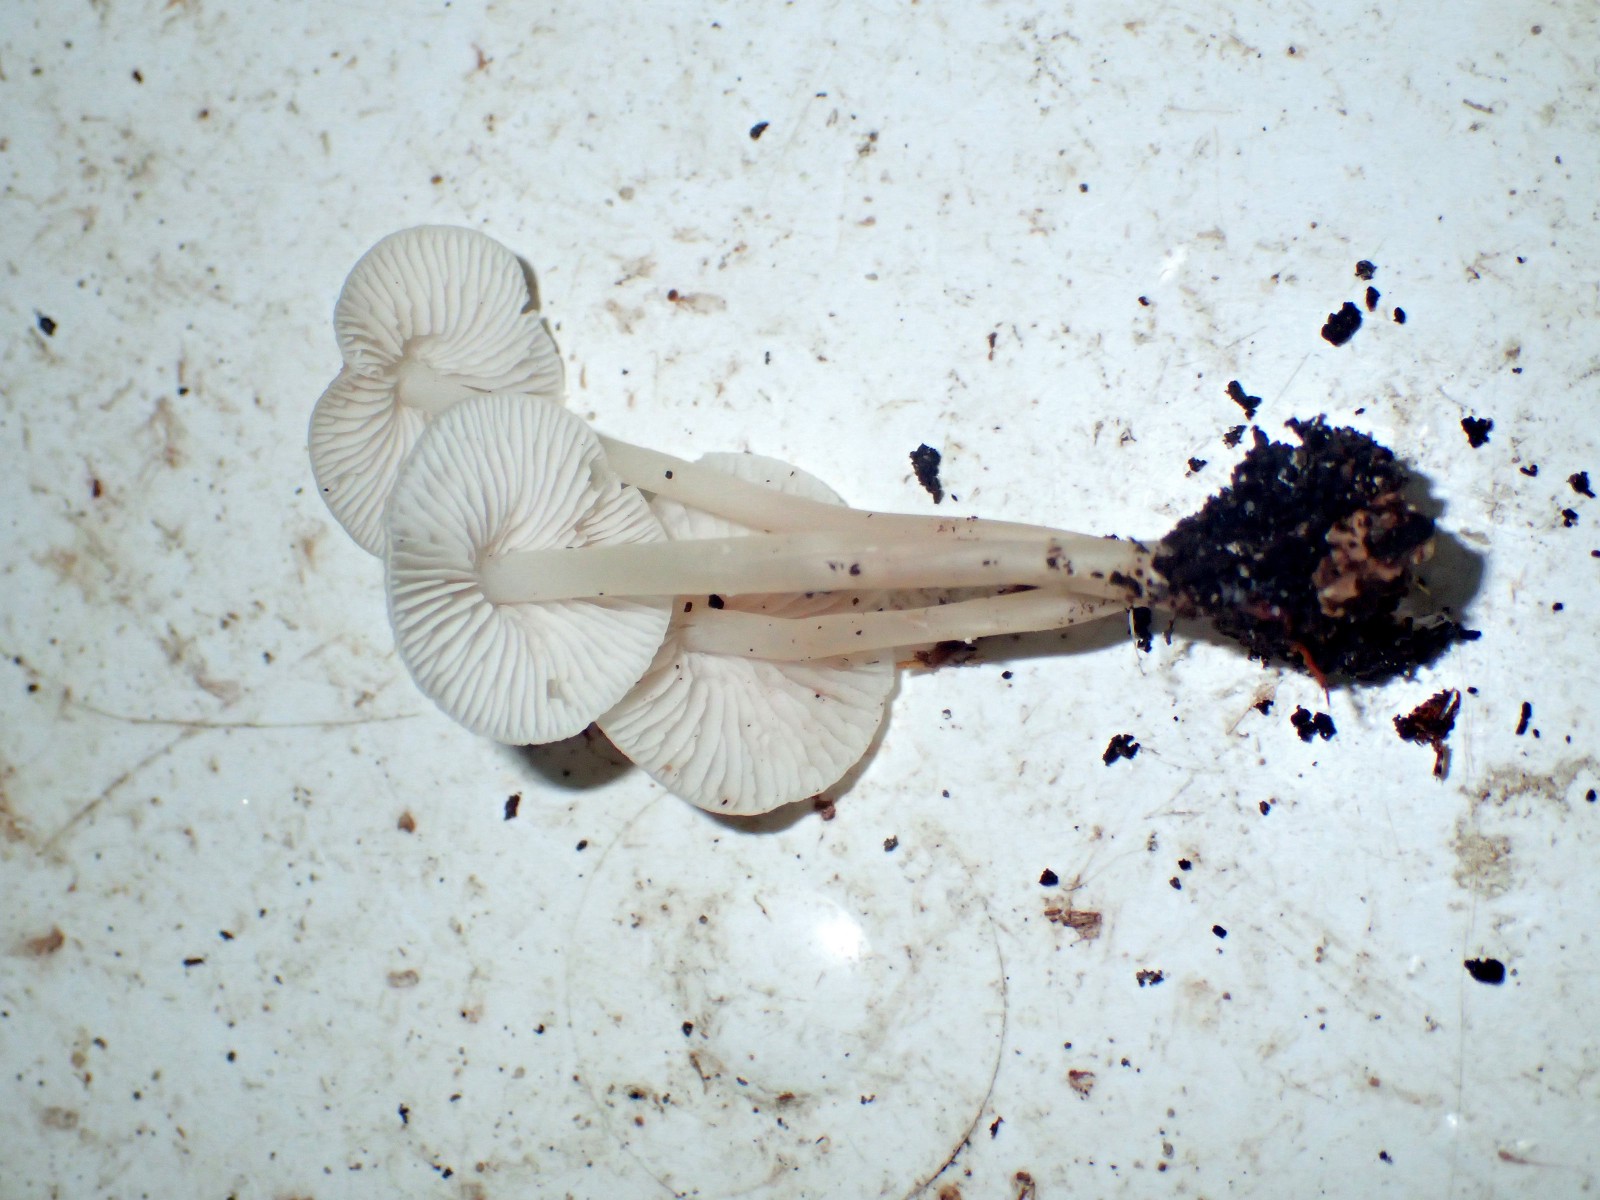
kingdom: Fungi
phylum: Basidiomycota
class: Agaricomycetes
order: Agaricales
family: Mycenaceae
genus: Mycena
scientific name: Mycena galericulata
